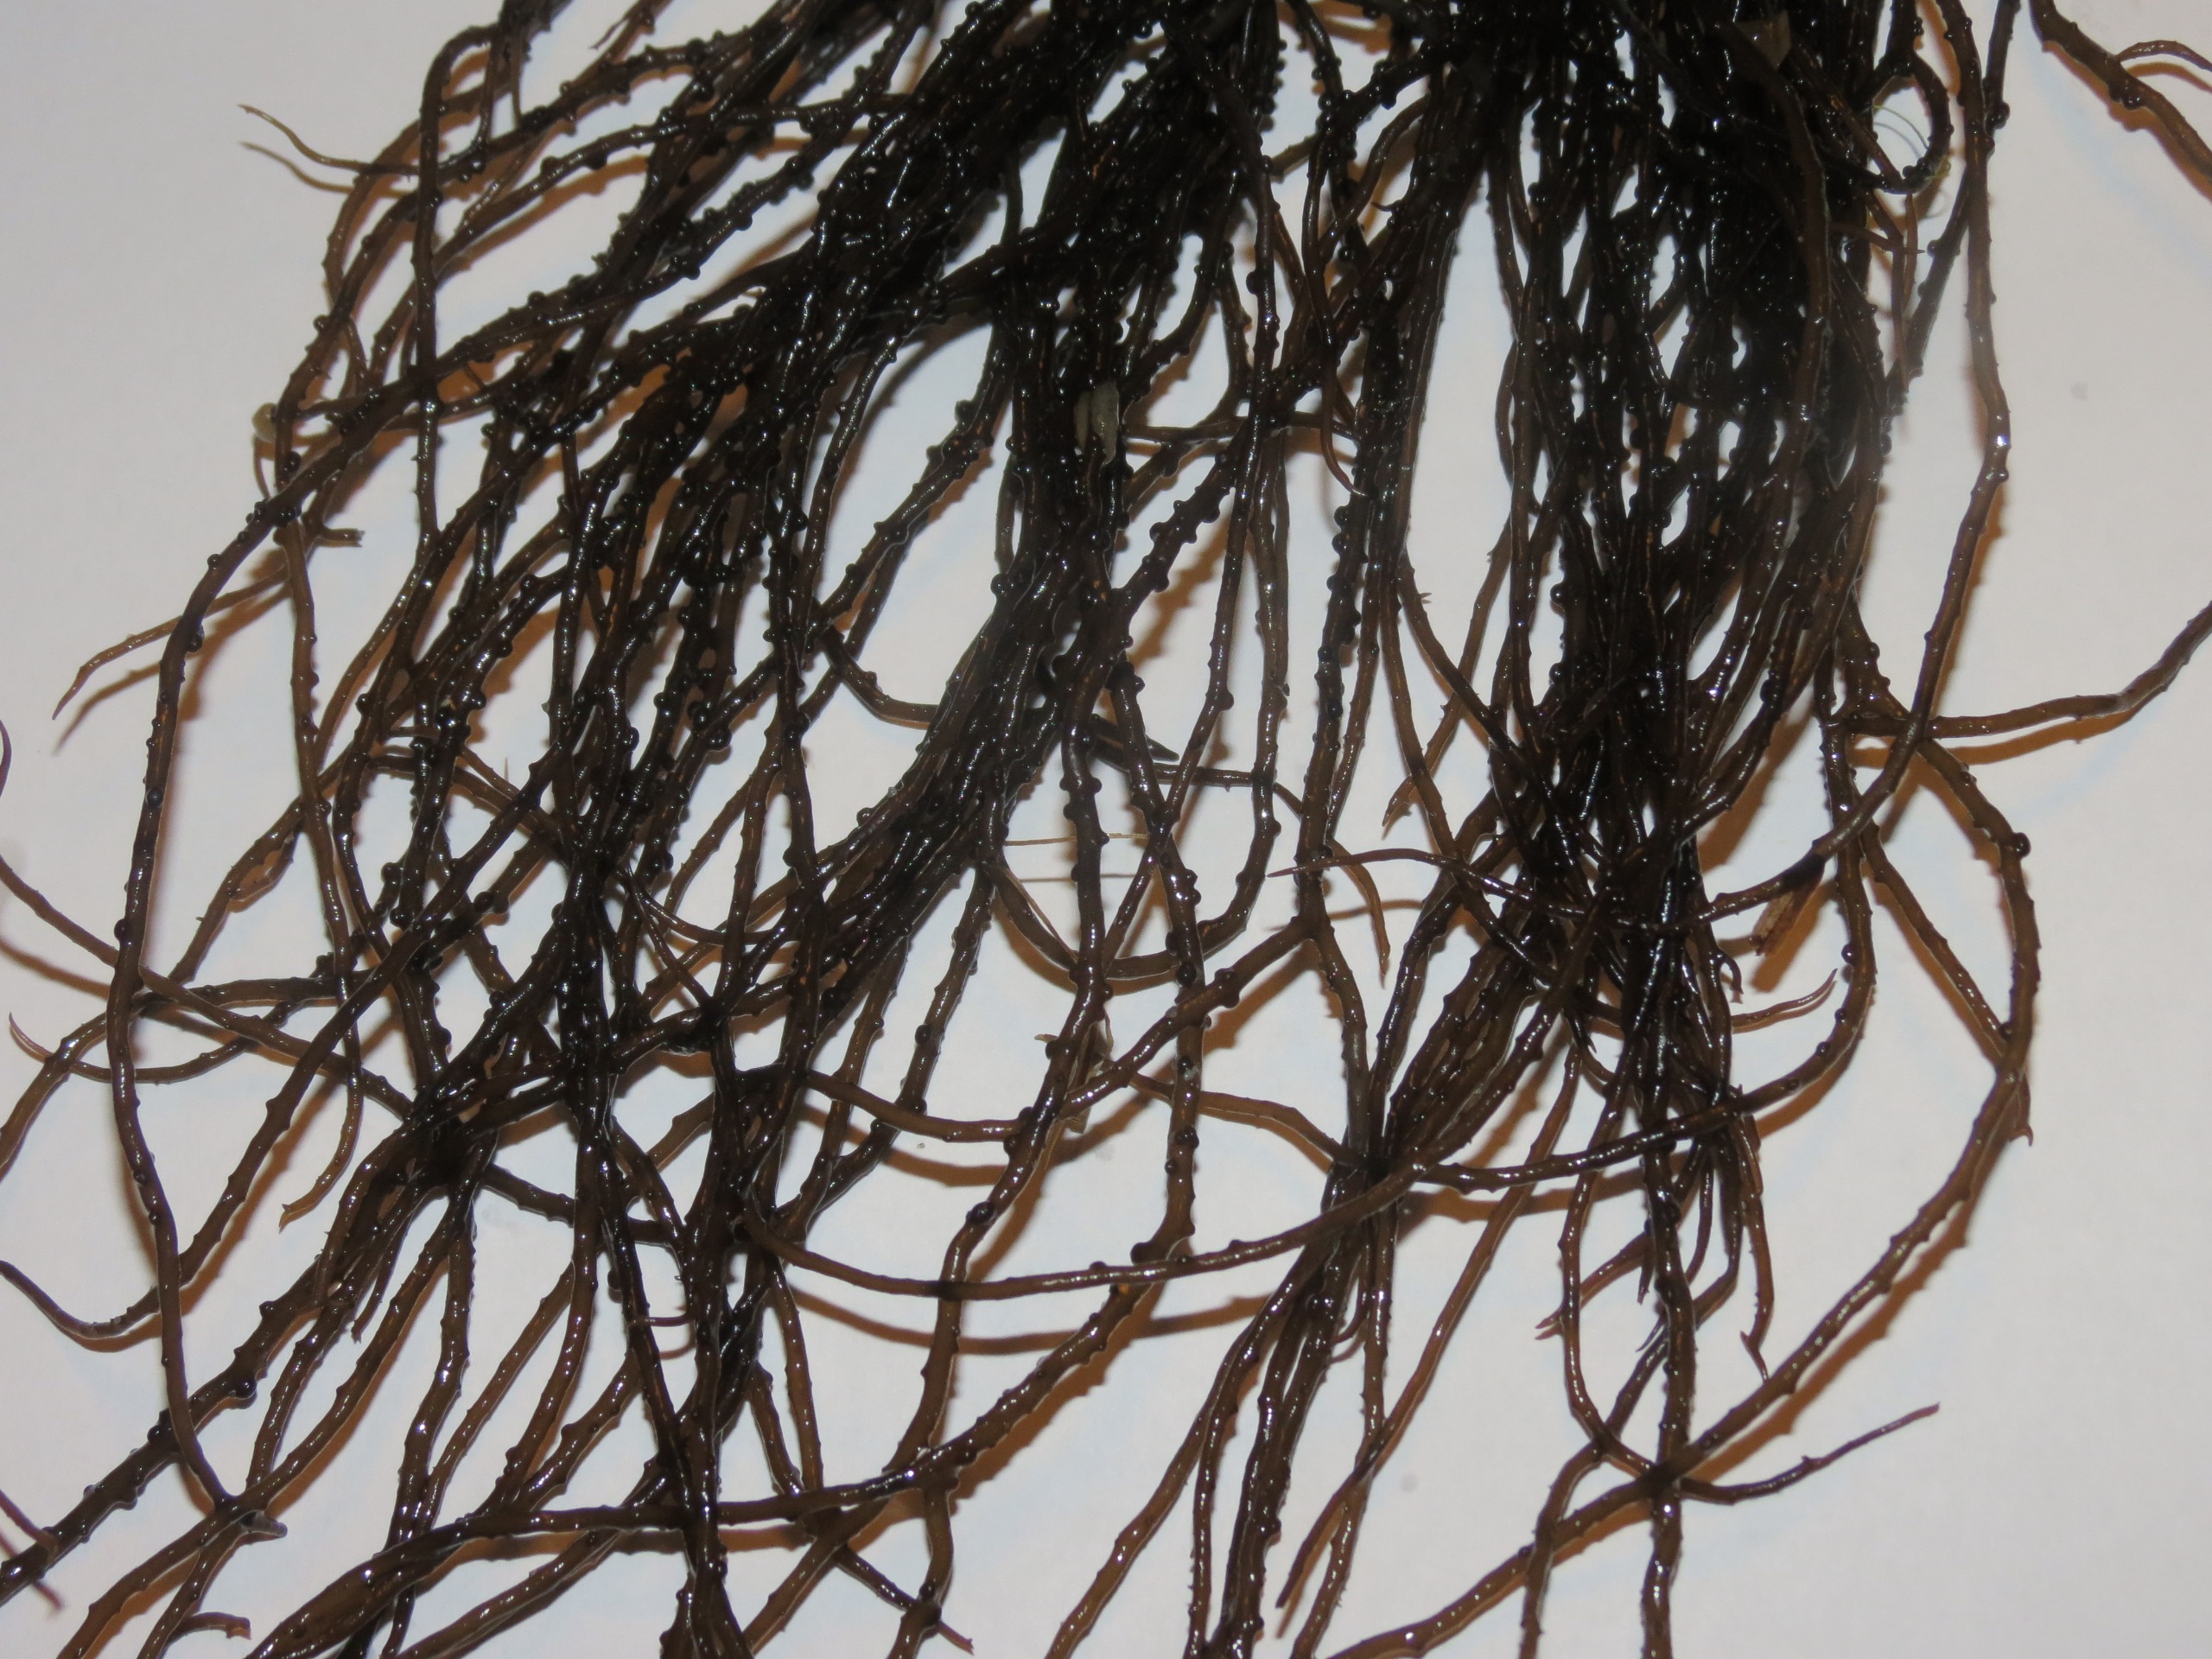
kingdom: Plantae
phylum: Rhodophyta
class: Florideophyceae
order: Gracilariales
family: Gracilariaceae
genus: Gracilaria
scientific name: Gracilaria vermiculophylla
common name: Brunlig gracilariatang
